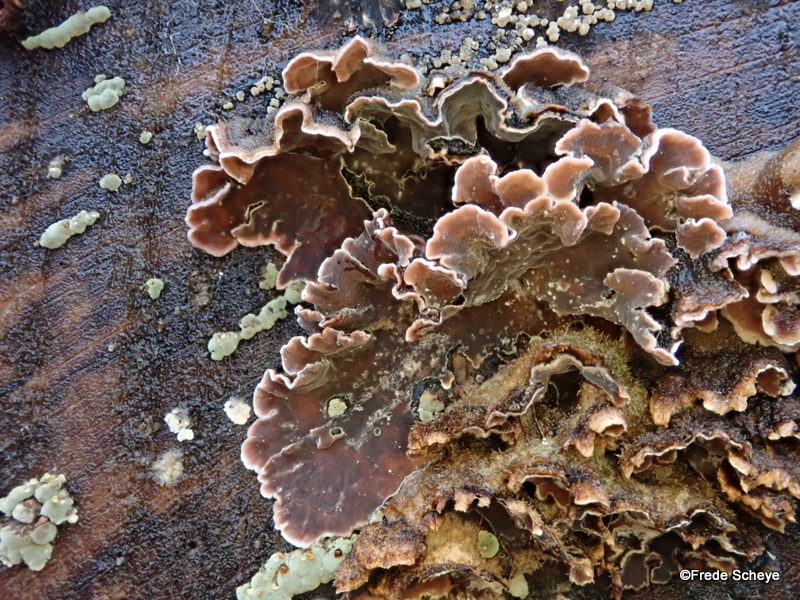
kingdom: Fungi
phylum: Basidiomycota
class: Agaricomycetes
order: Agaricales
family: Cyphellaceae
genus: Chondrostereum
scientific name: Chondrostereum purpureum
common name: purpurlædersvamp
